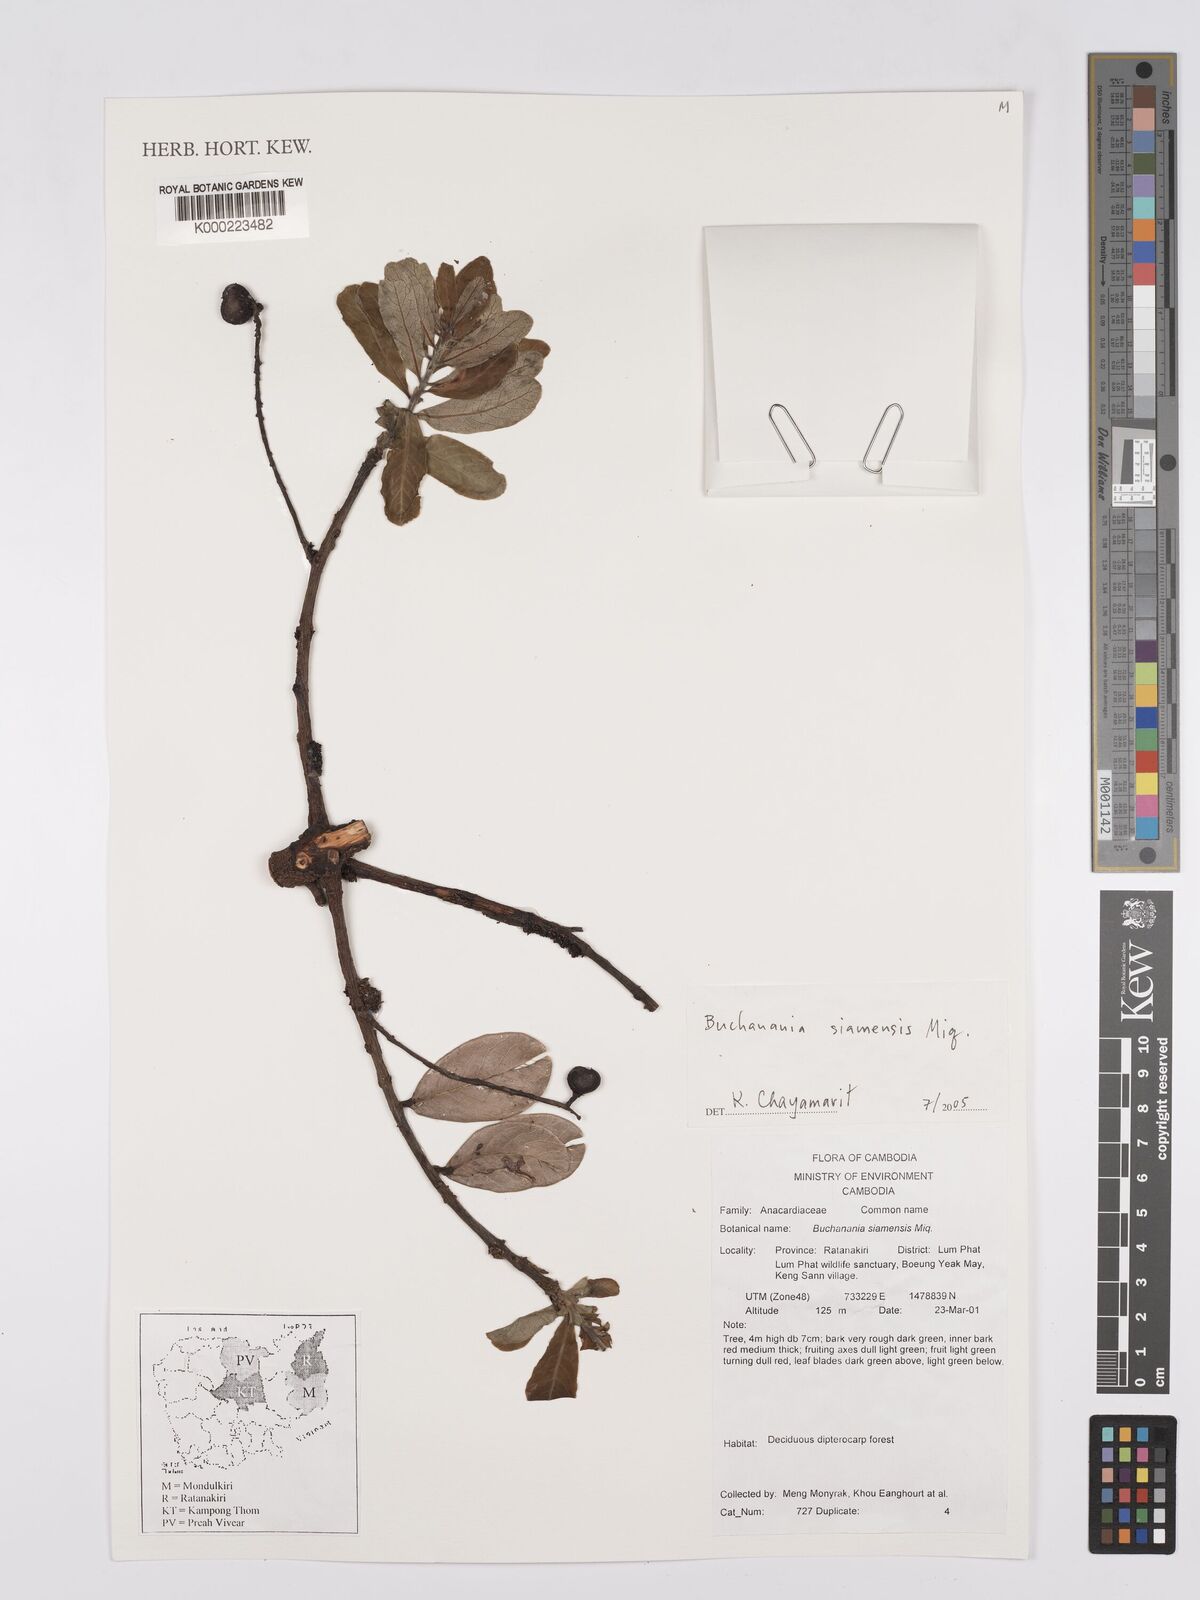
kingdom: Plantae
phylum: Tracheophyta
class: Magnoliopsida
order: Sapindales
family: Anacardiaceae
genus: Buchanania
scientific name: Buchanania siamensis
